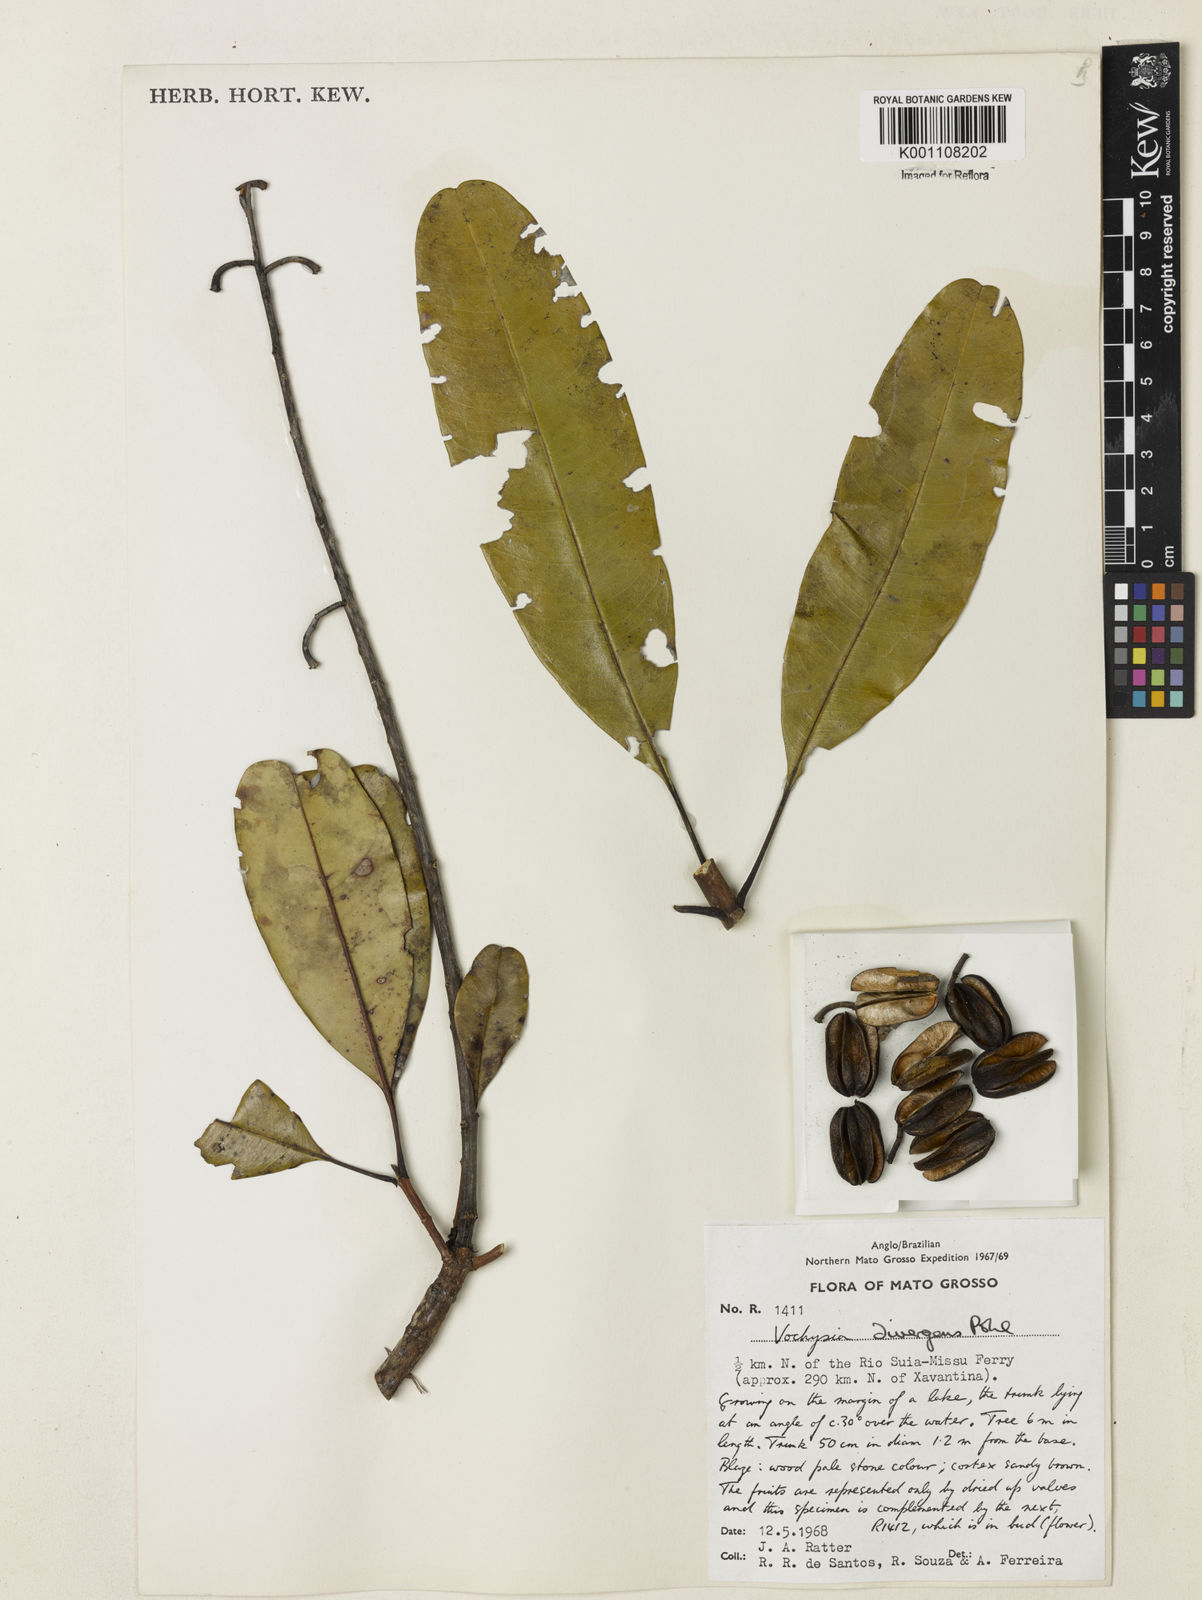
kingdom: Plantae
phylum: Tracheophyta
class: Magnoliopsida
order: Myrtales
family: Vochysiaceae
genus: Vochysia
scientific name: Vochysia divergens
